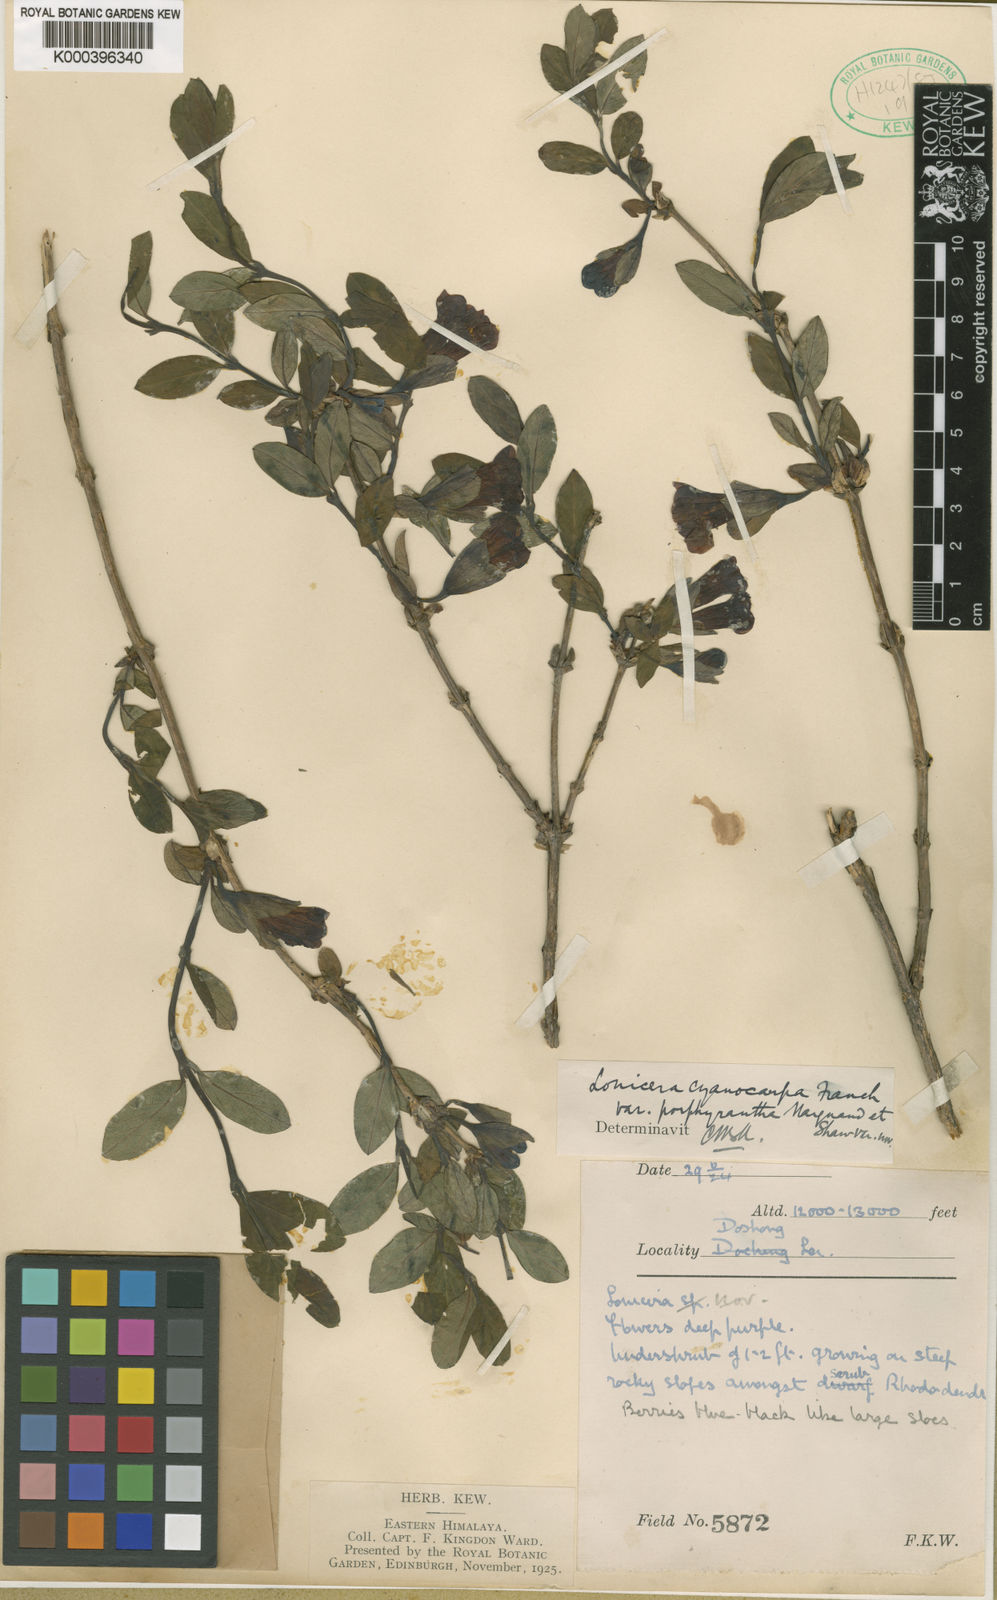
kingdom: Plantae
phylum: Tracheophyta
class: Magnoliopsida
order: Dipsacales
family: Caprifoliaceae
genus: Lonicera
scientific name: Lonicera setifera
